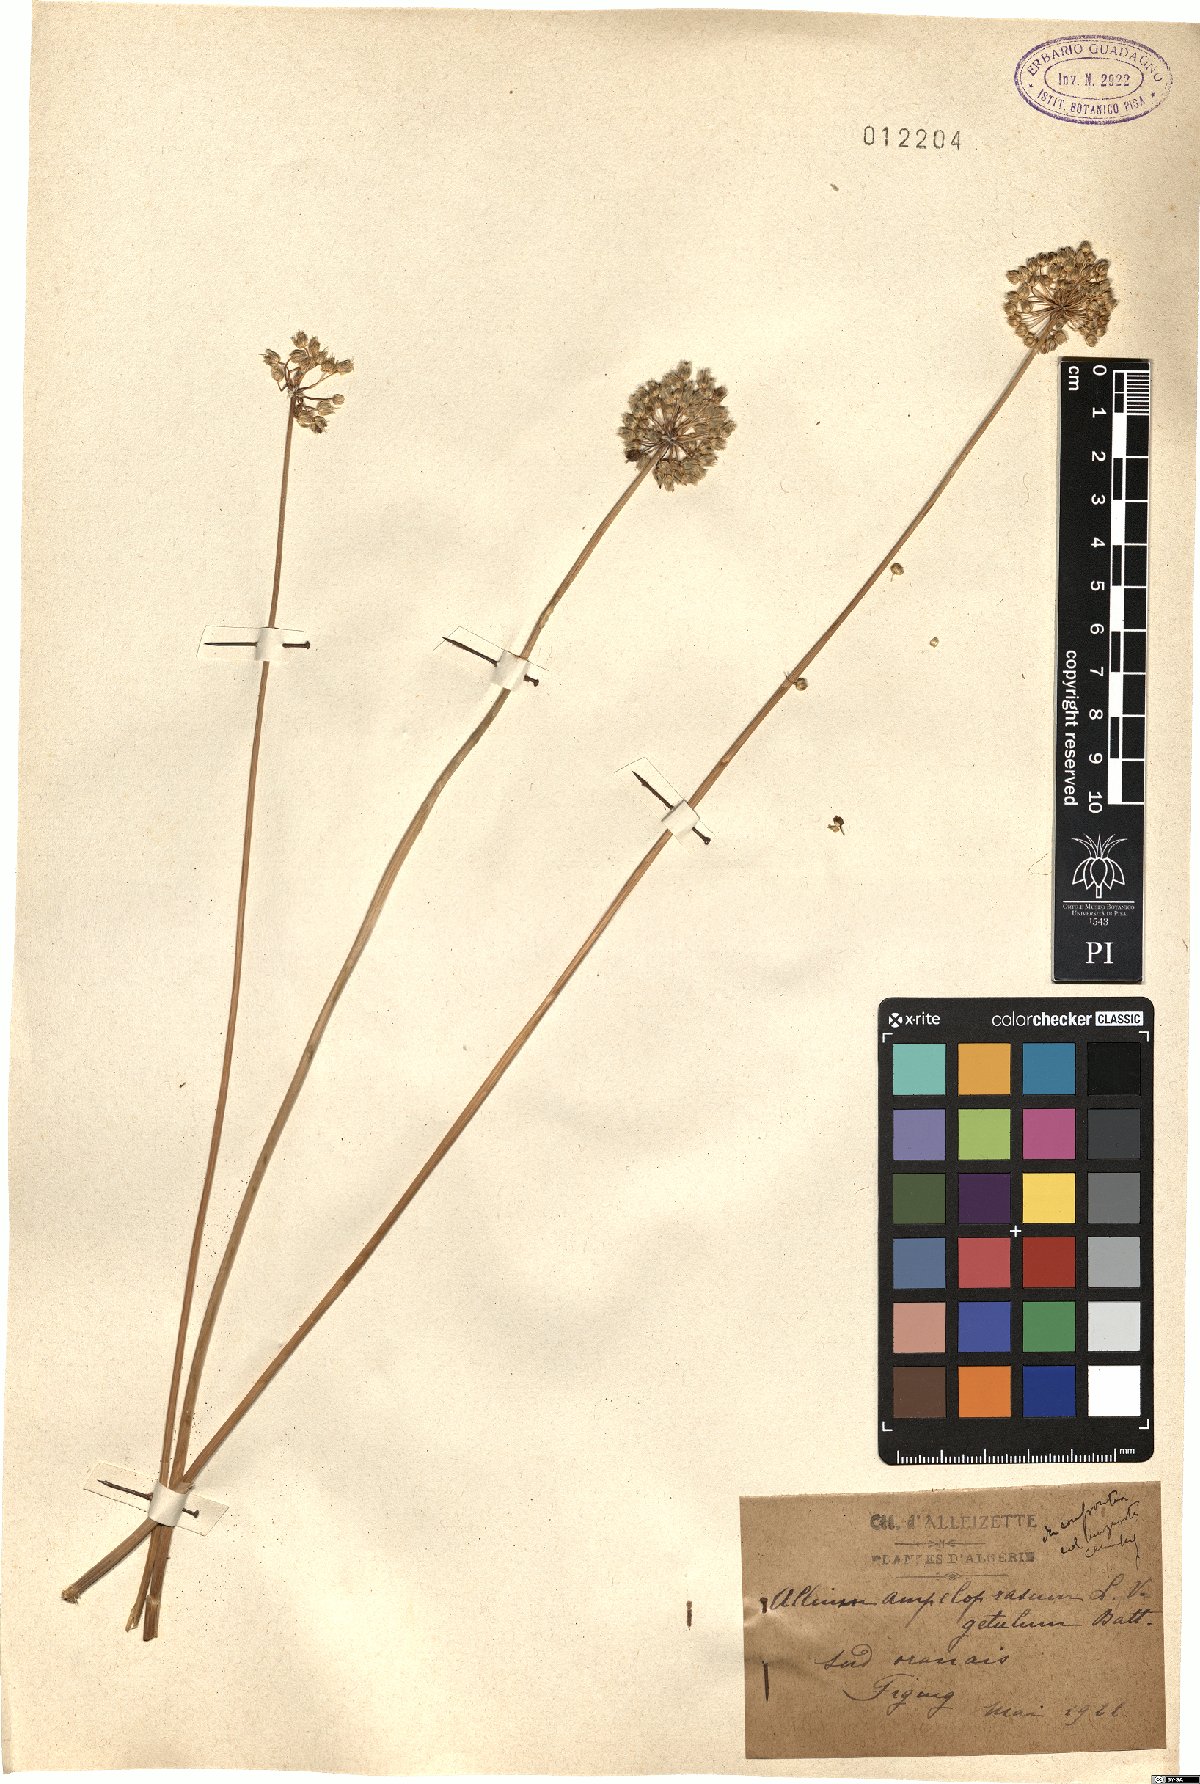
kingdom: Plantae
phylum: Tracheophyta
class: Liliopsida
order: Asparagales
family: Amaryllidaceae
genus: Allium
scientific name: Allium multiflorum
